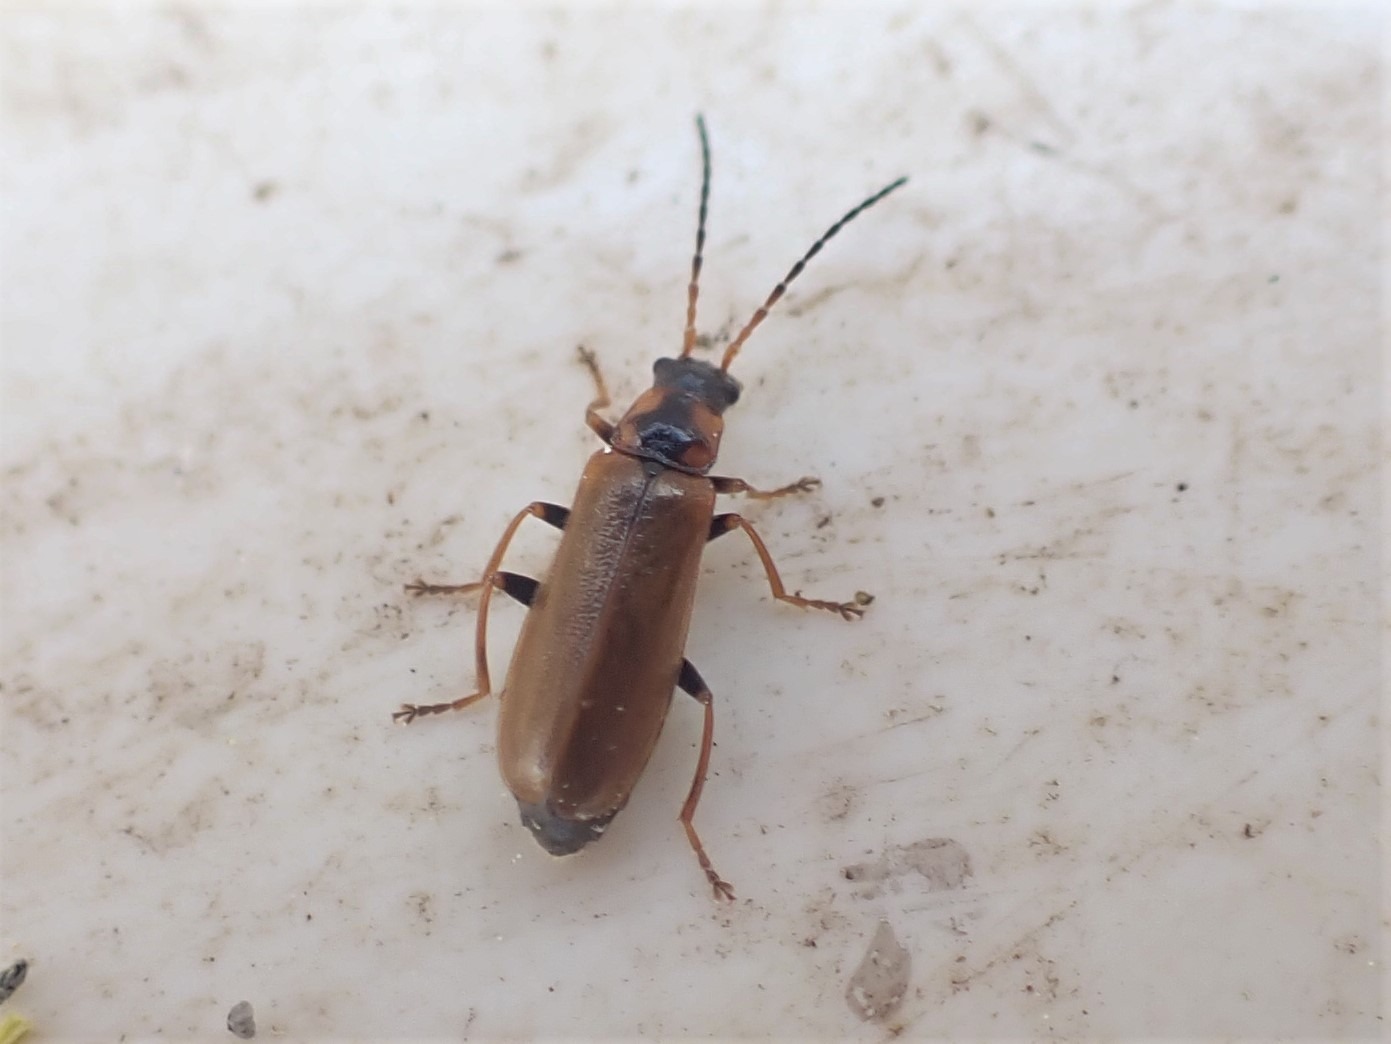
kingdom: Animalia
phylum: Arthropoda
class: Insecta
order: Coleoptera
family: Cantharidae
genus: Rhagonycha
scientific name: Rhagonycha nigriventris
